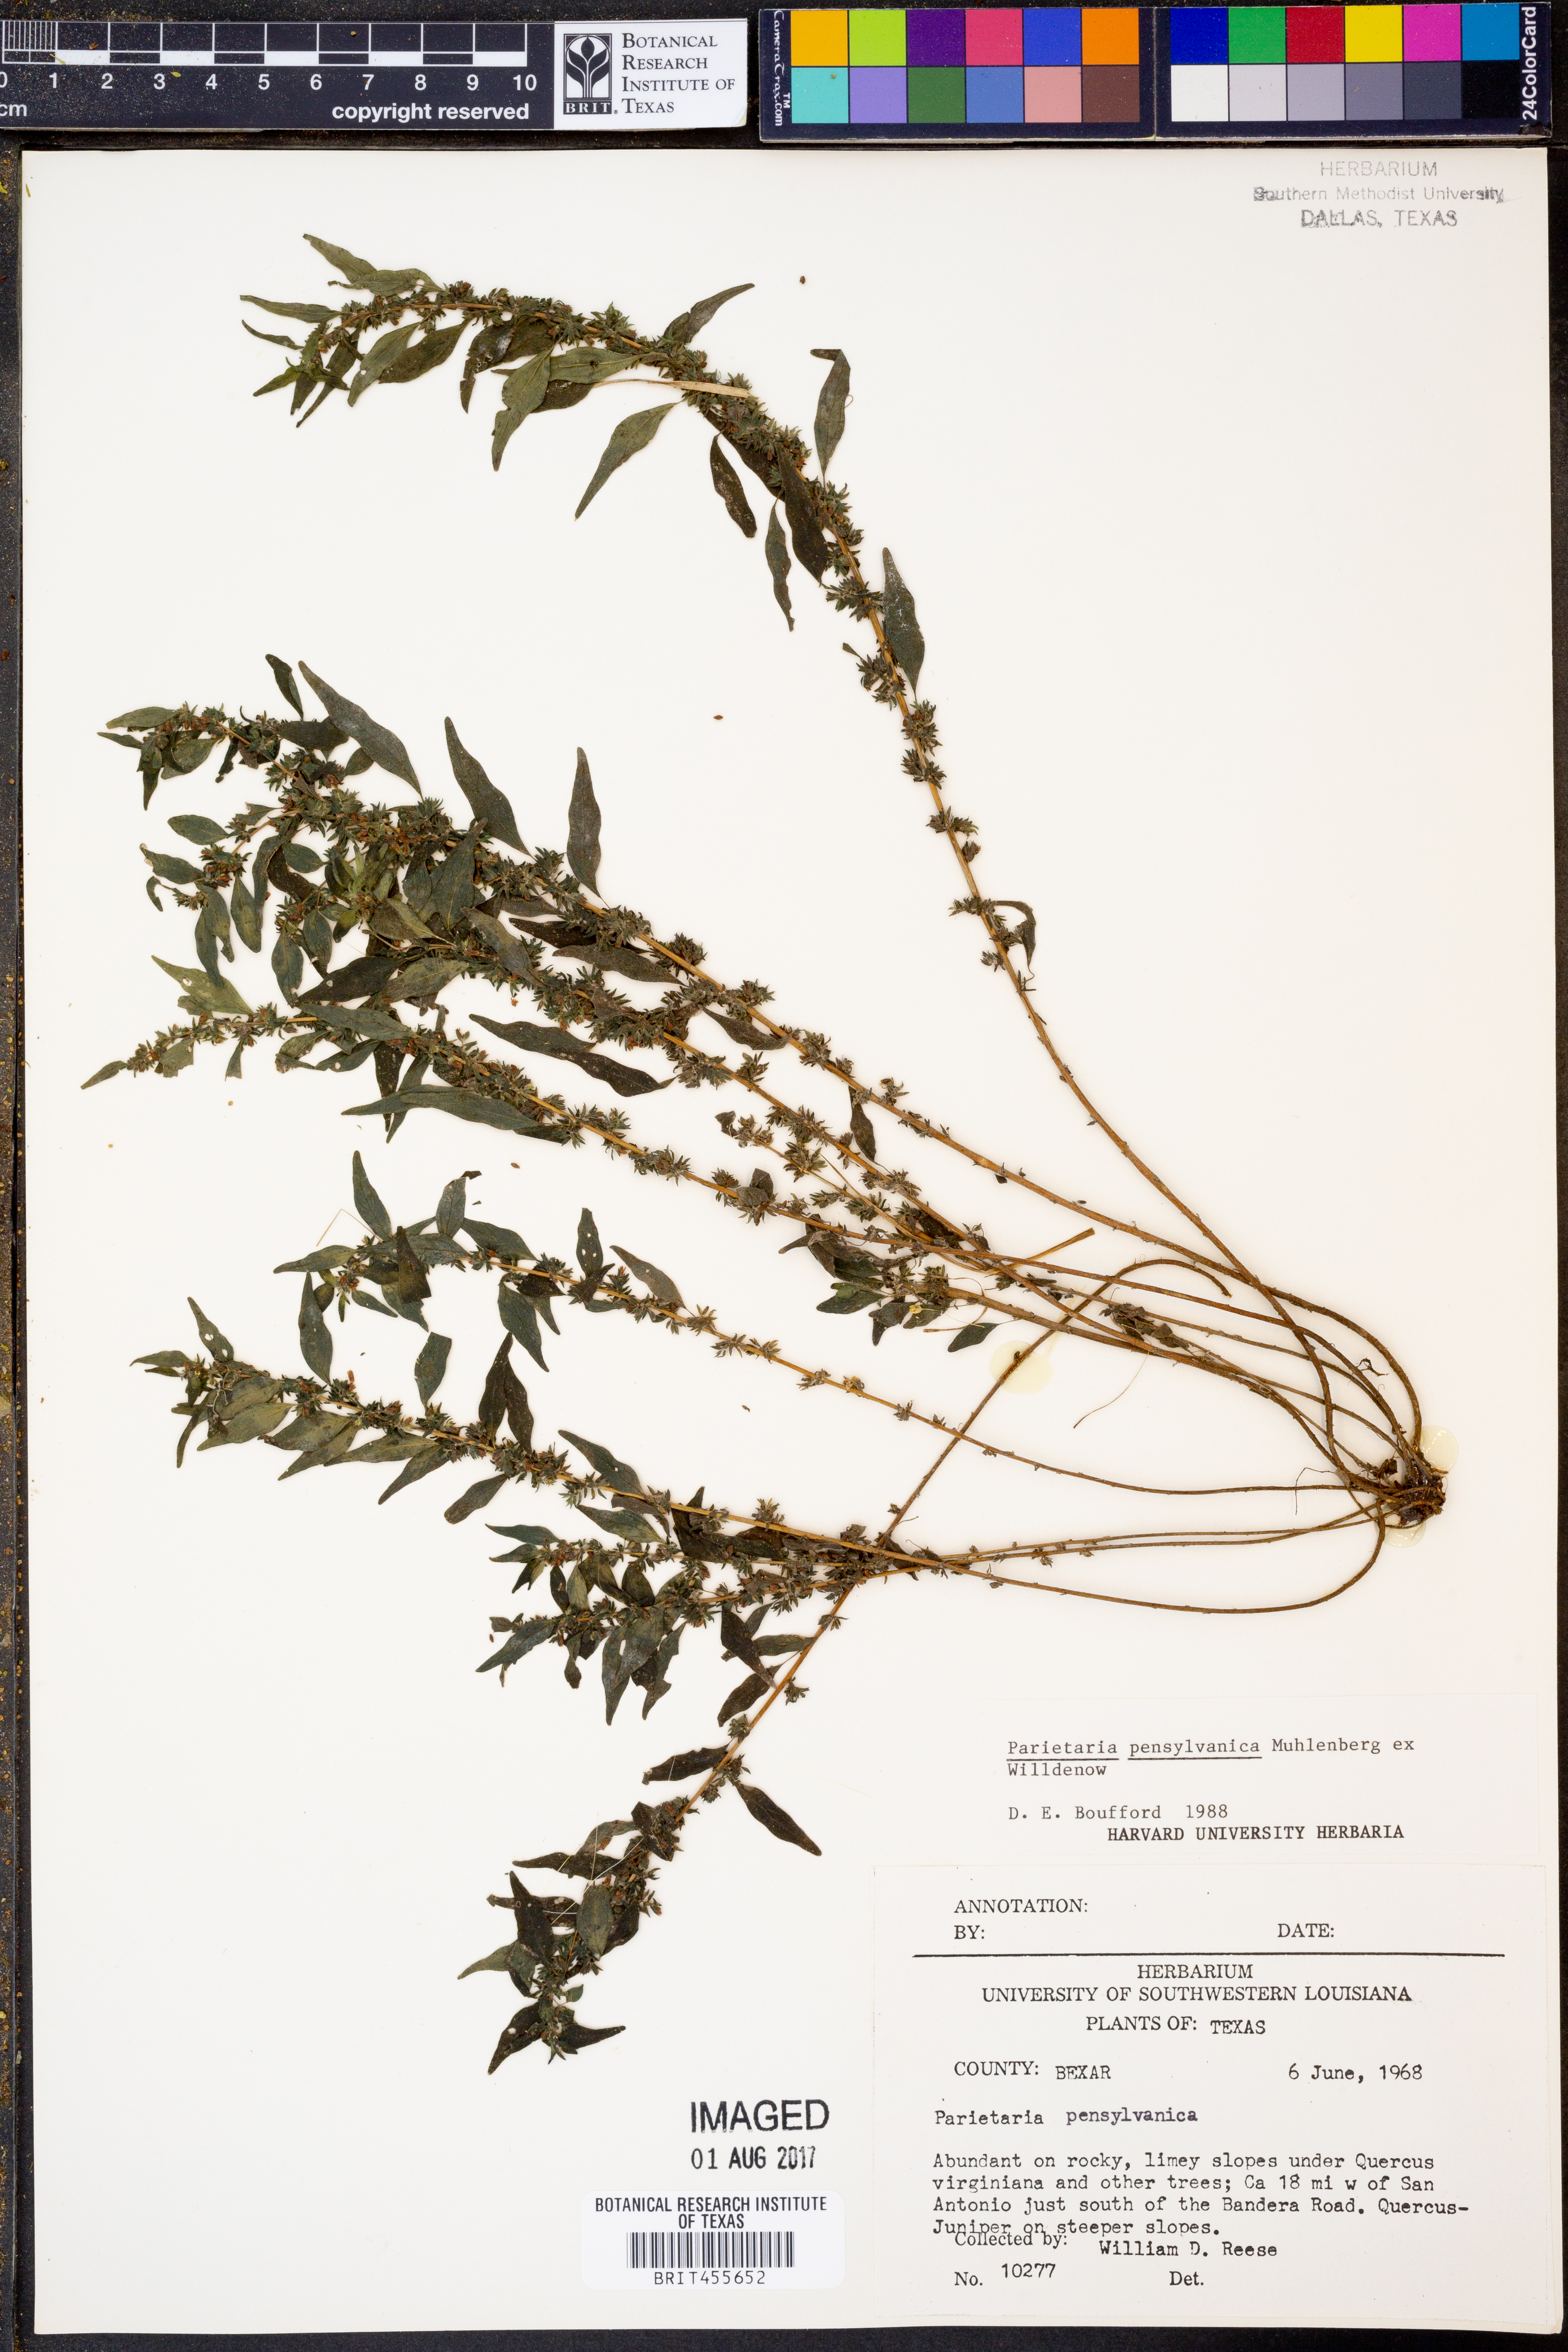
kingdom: Plantae
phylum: Tracheophyta
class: Magnoliopsida
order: Rosales
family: Urticaceae
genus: Parietaria
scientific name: Parietaria pensylvanica
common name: Pennsylvania pellitory
